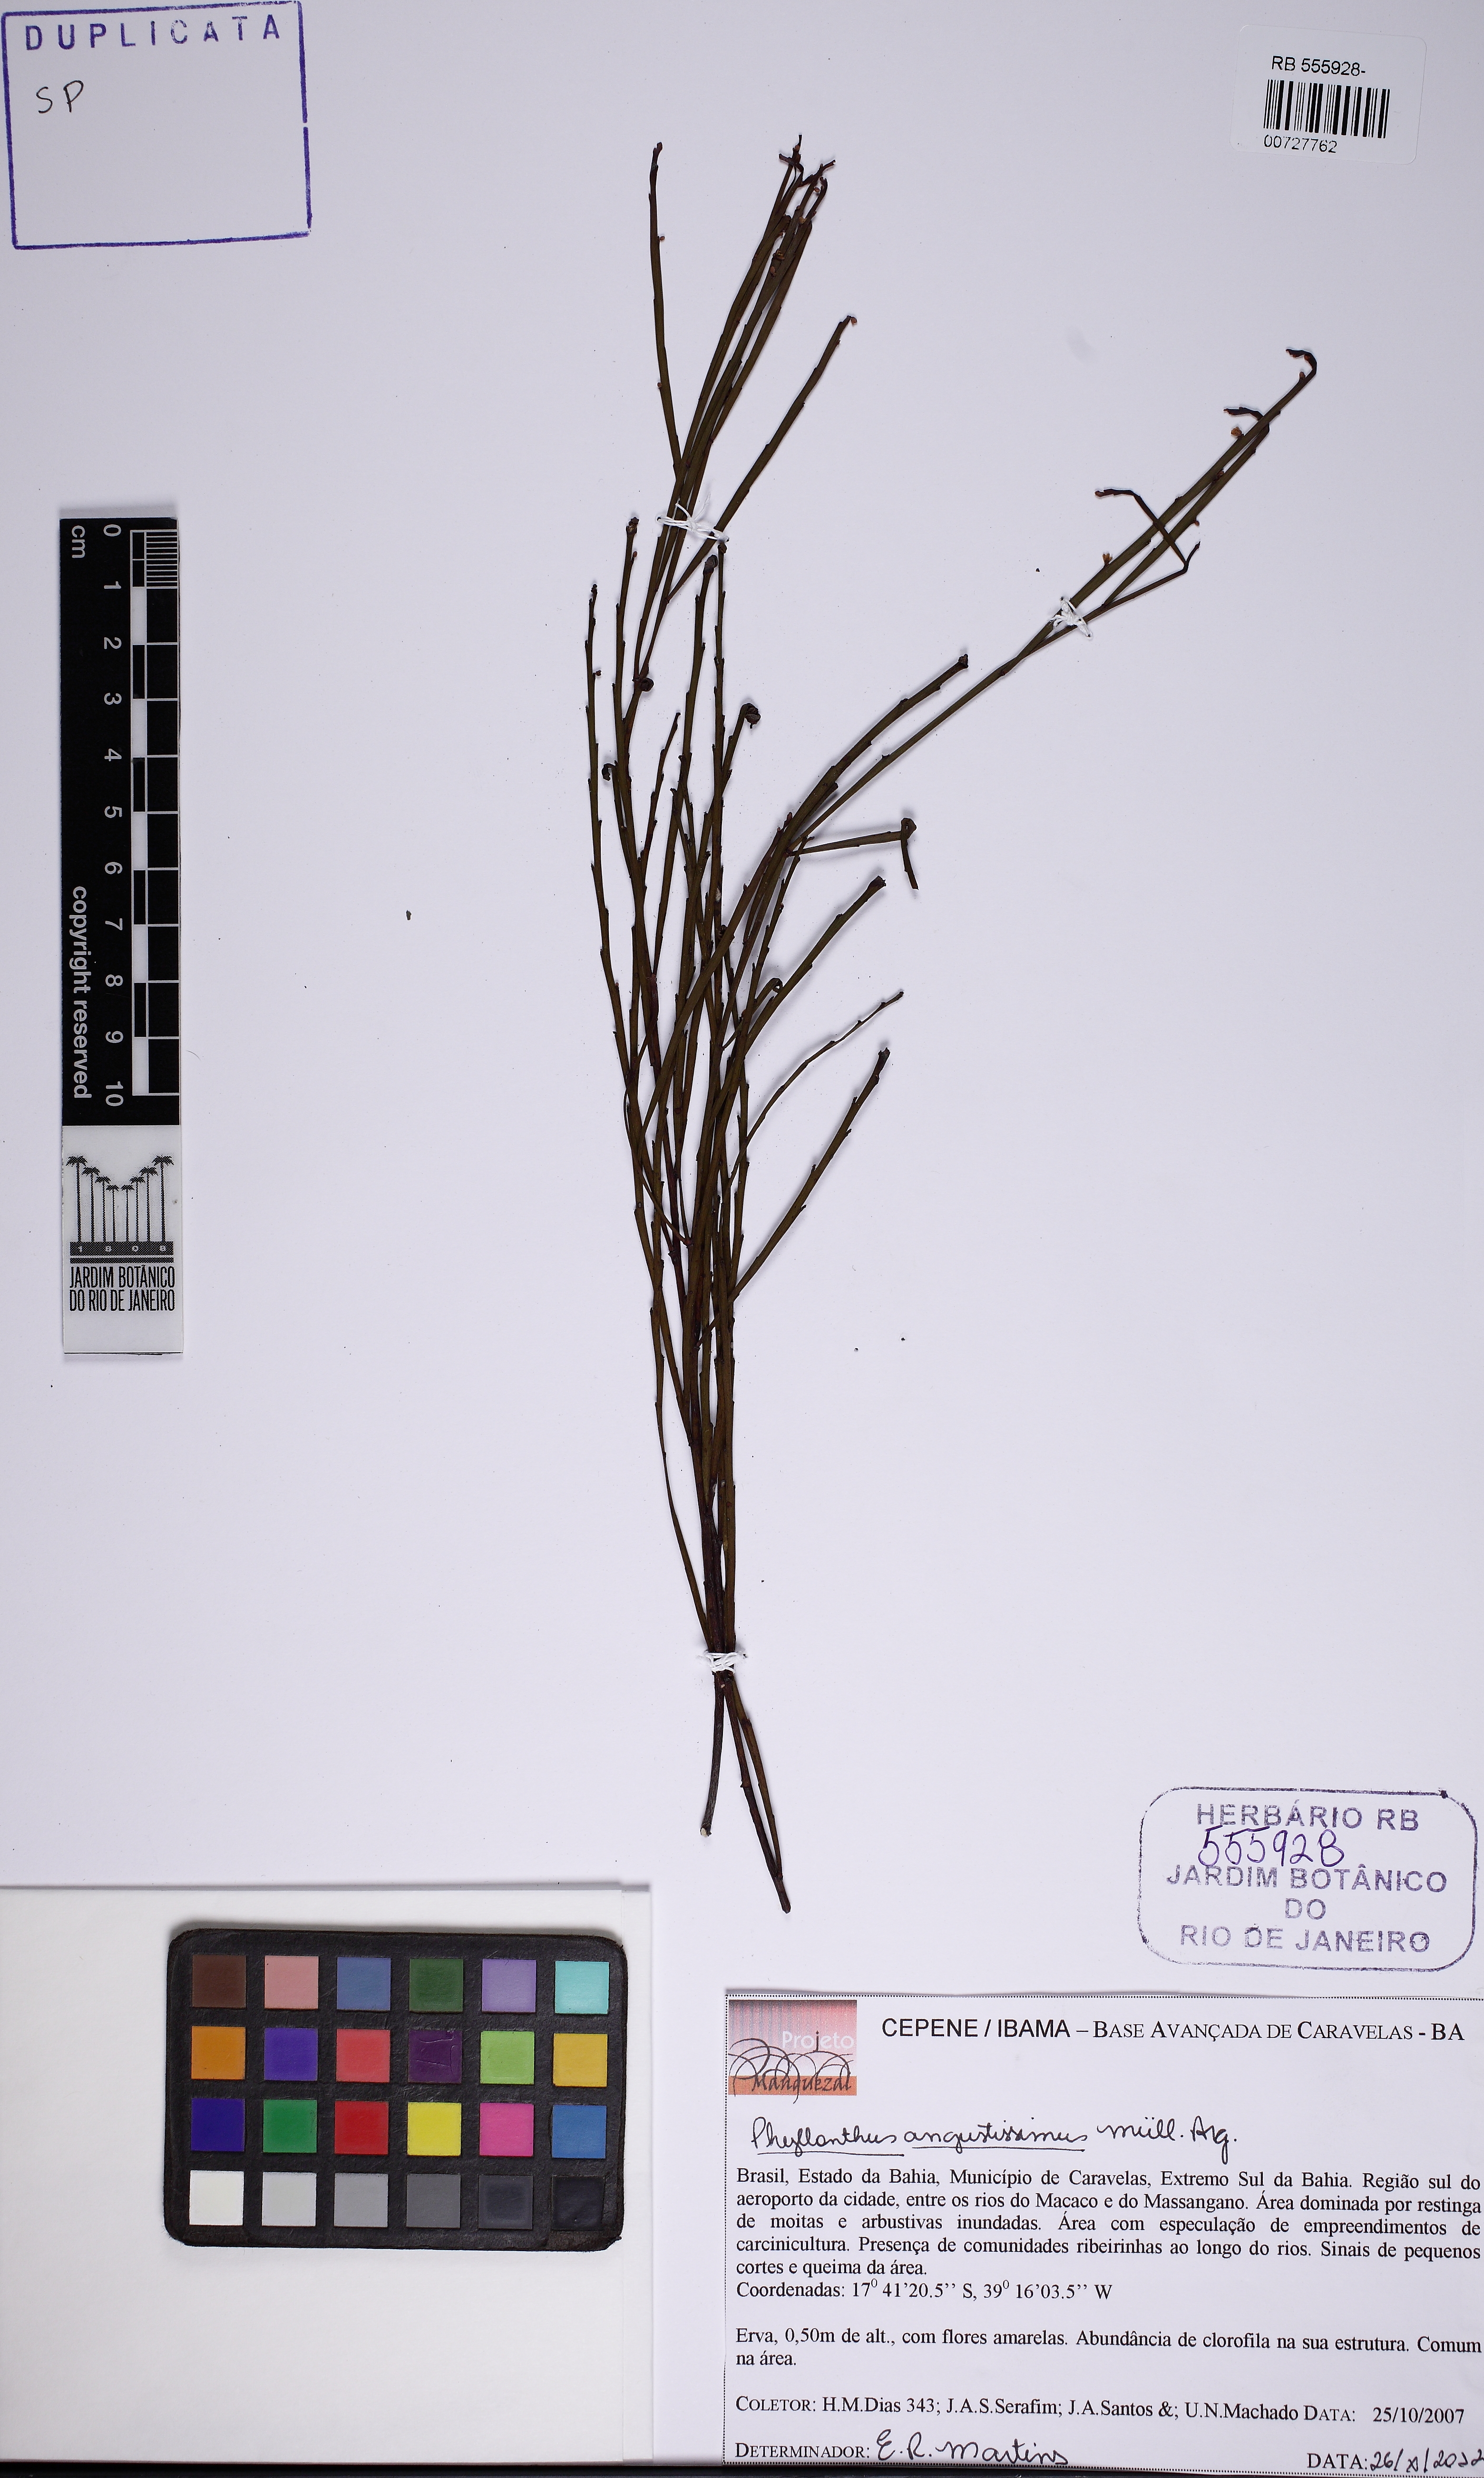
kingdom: Plantae
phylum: Tracheophyta
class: Magnoliopsida
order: Malpighiales
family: Phyllanthaceae
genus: Phyllanthus
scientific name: Phyllanthus angustissimus
